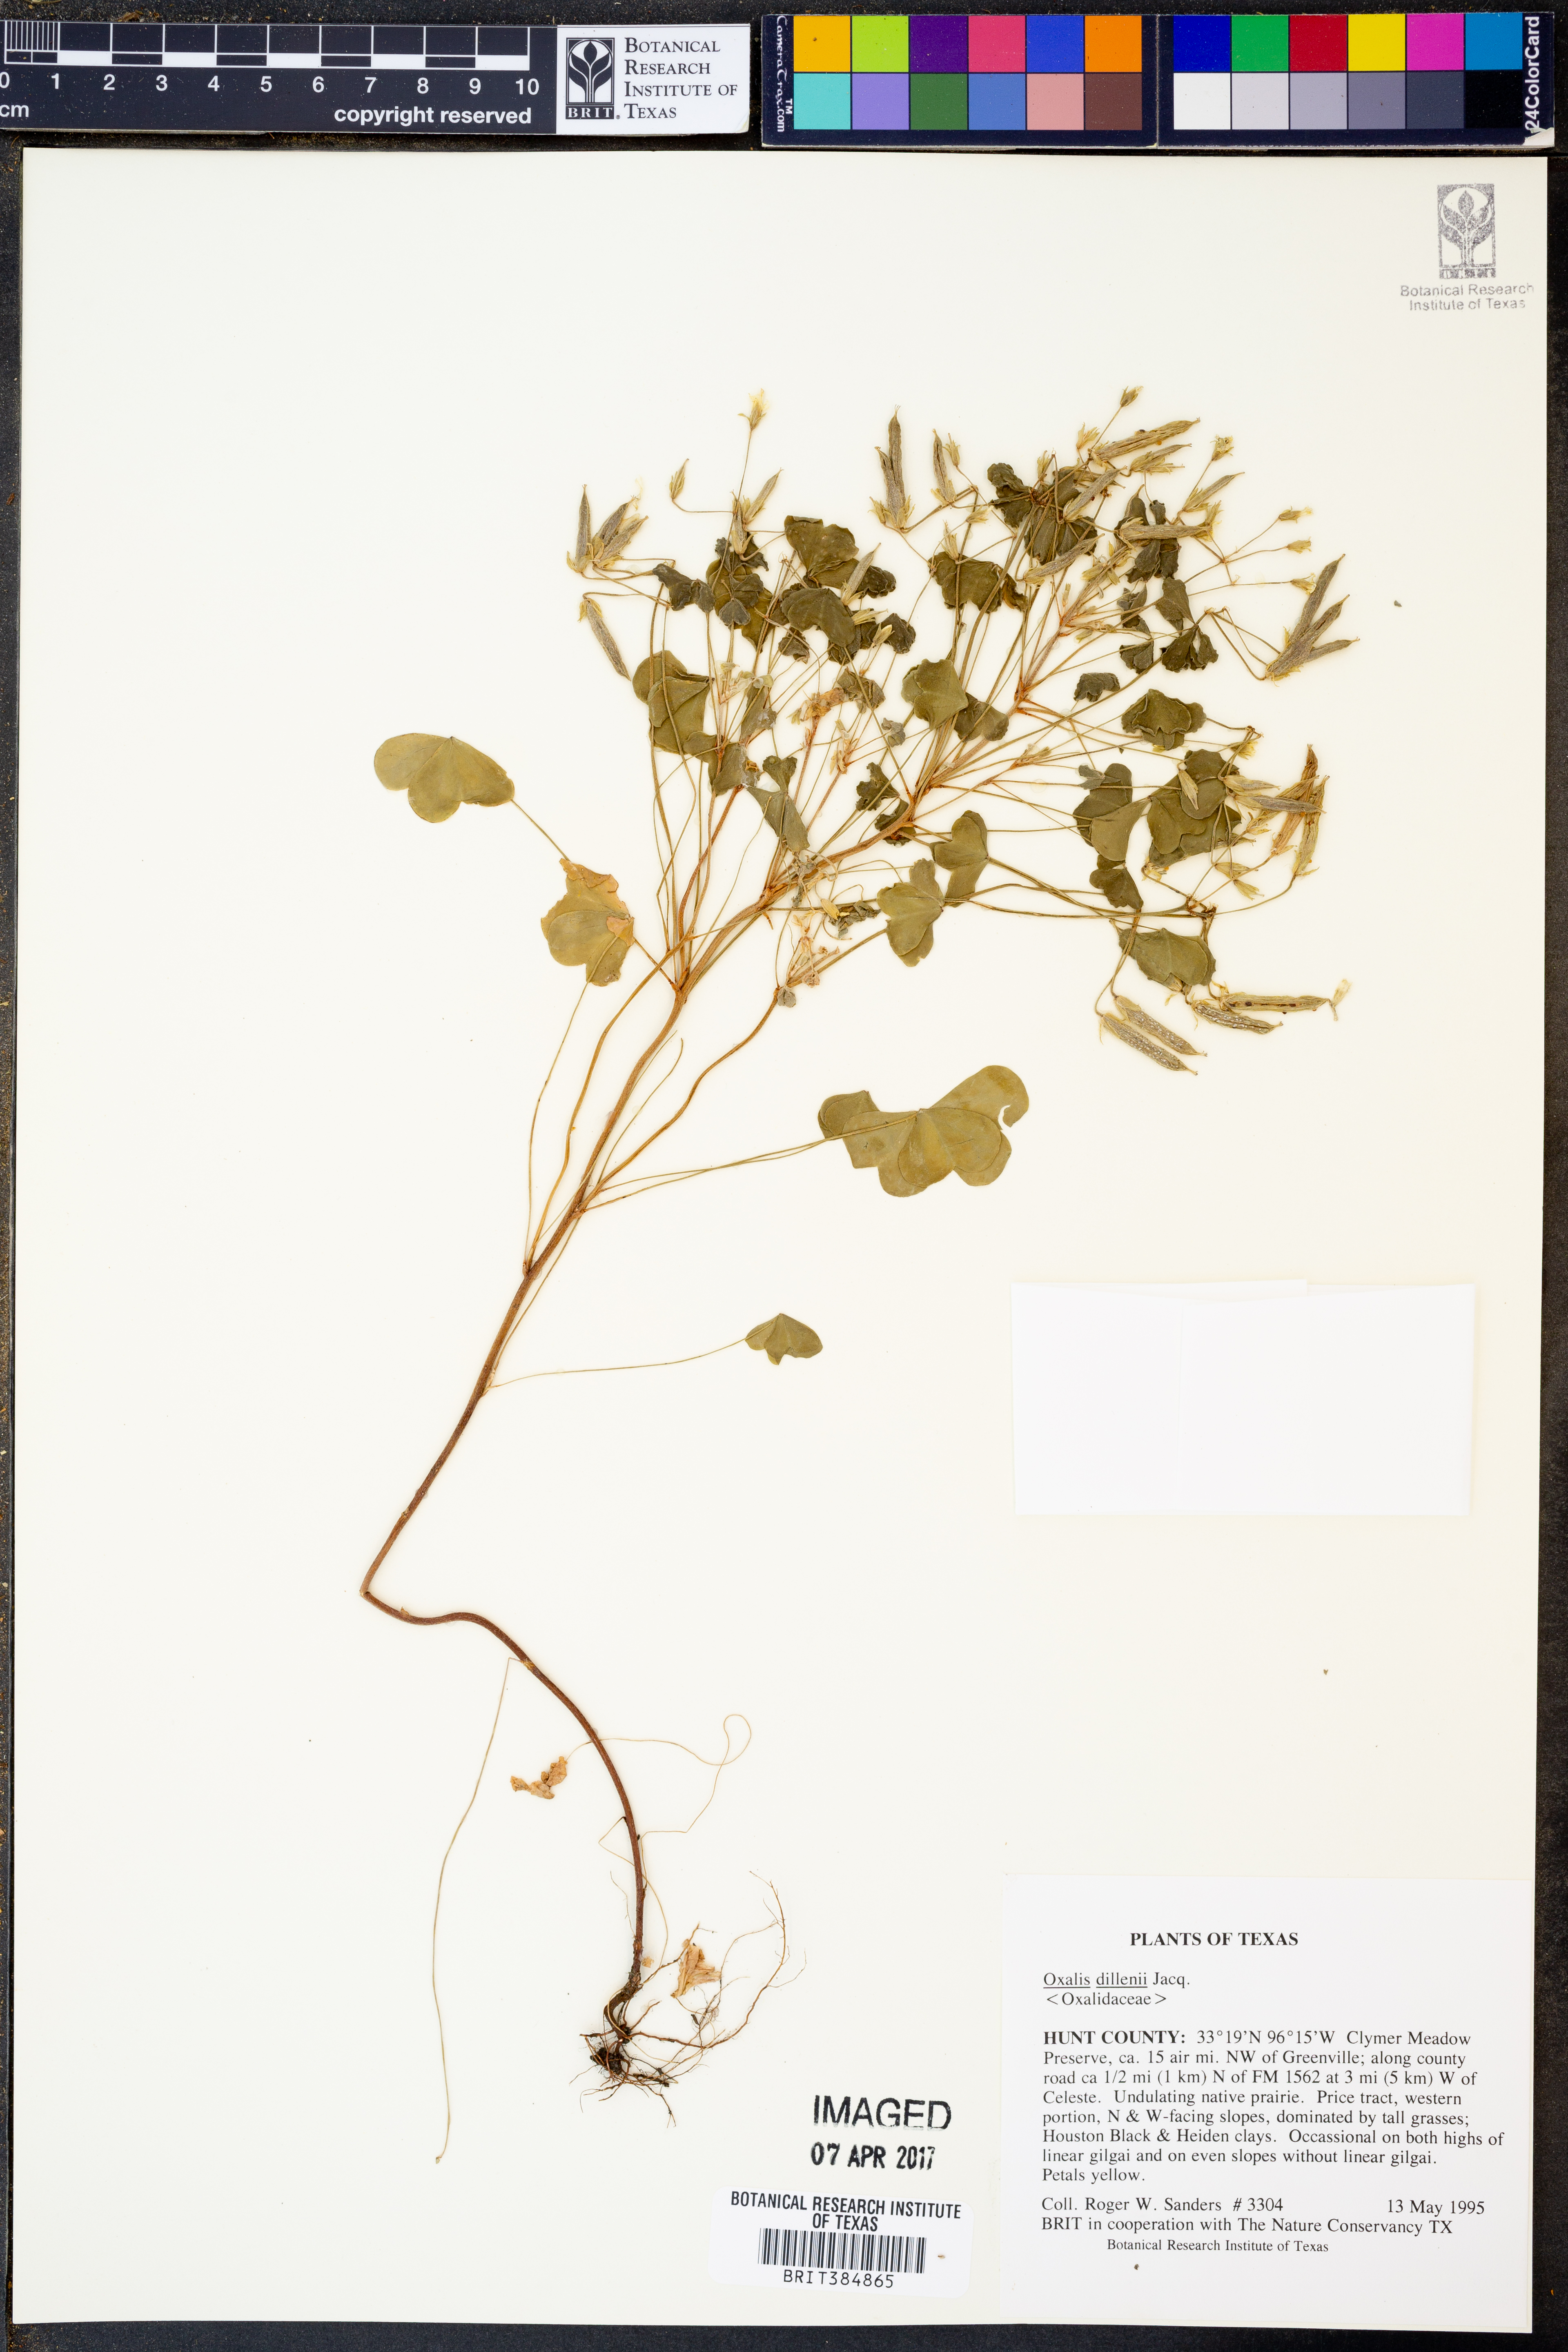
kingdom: Plantae
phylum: Tracheophyta
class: Magnoliopsida
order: Oxalidales
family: Oxalidaceae
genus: Oxalis
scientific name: Oxalis dillenii
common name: Sussex yellow-sorrel
